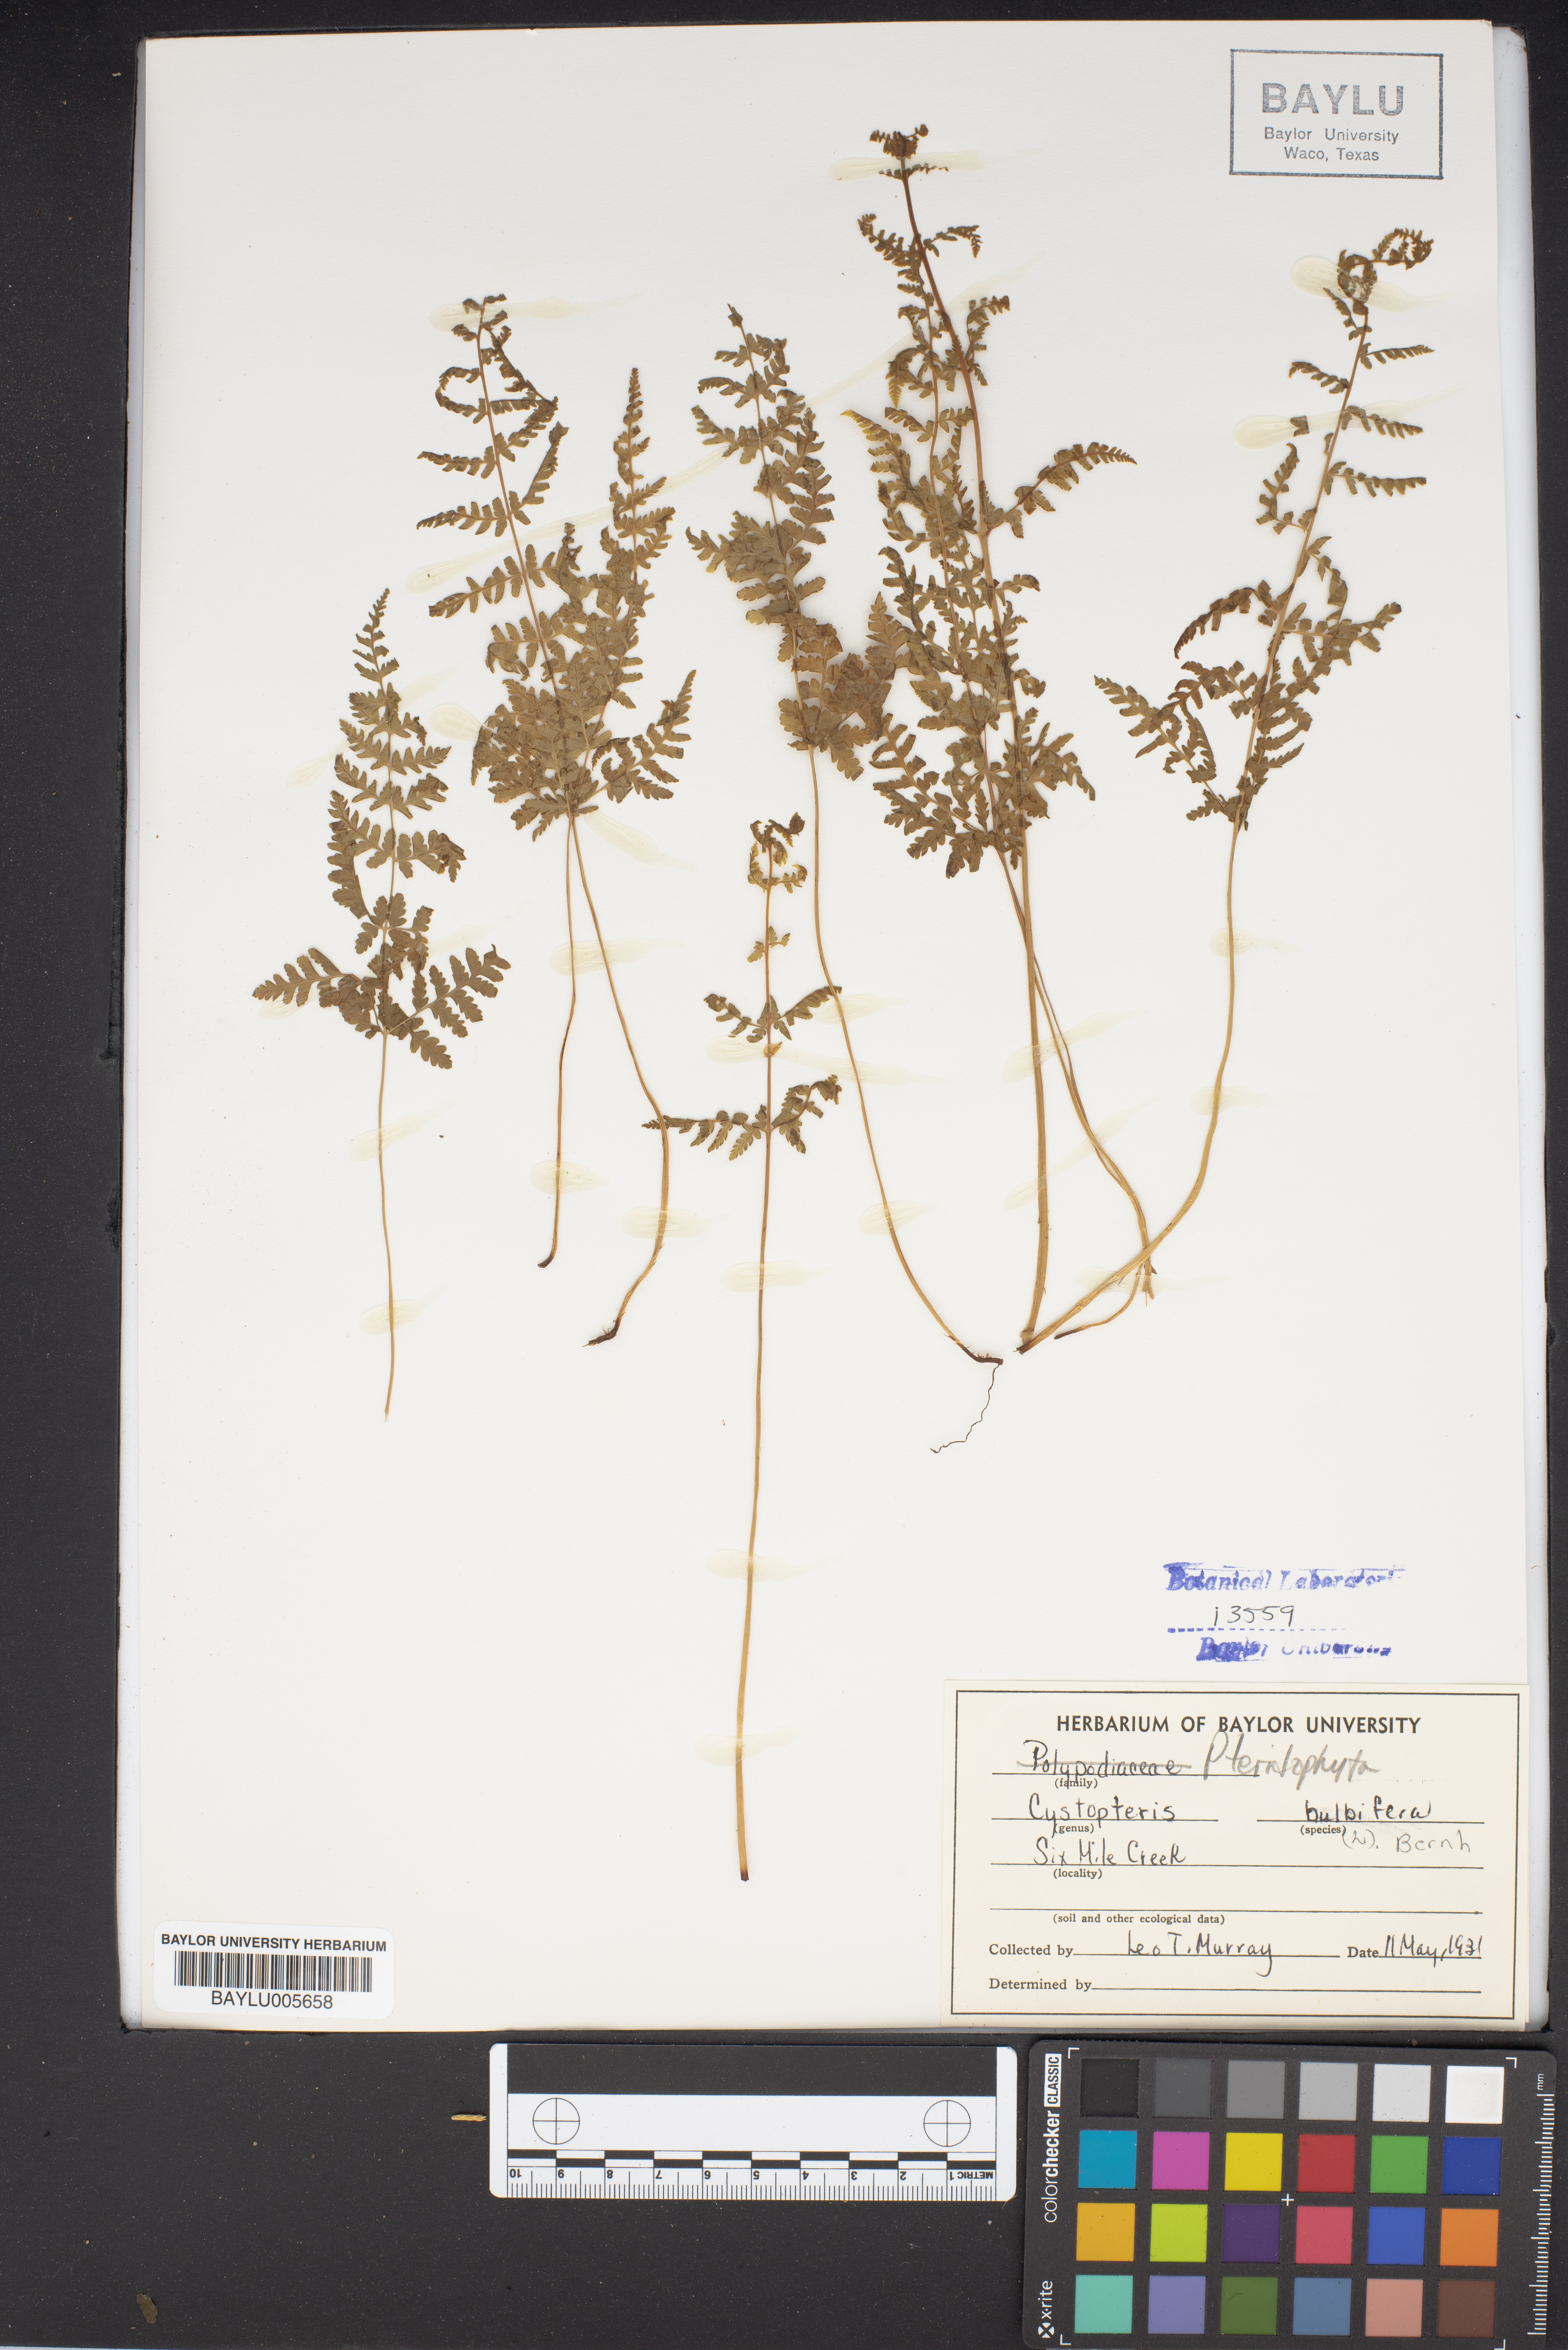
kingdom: Plantae
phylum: Tracheophyta
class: Polypodiopsida
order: Polypodiales
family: Cystopteridaceae
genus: Cystopteris
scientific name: Cystopteris bulbifera
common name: Bulblet bladder fern
